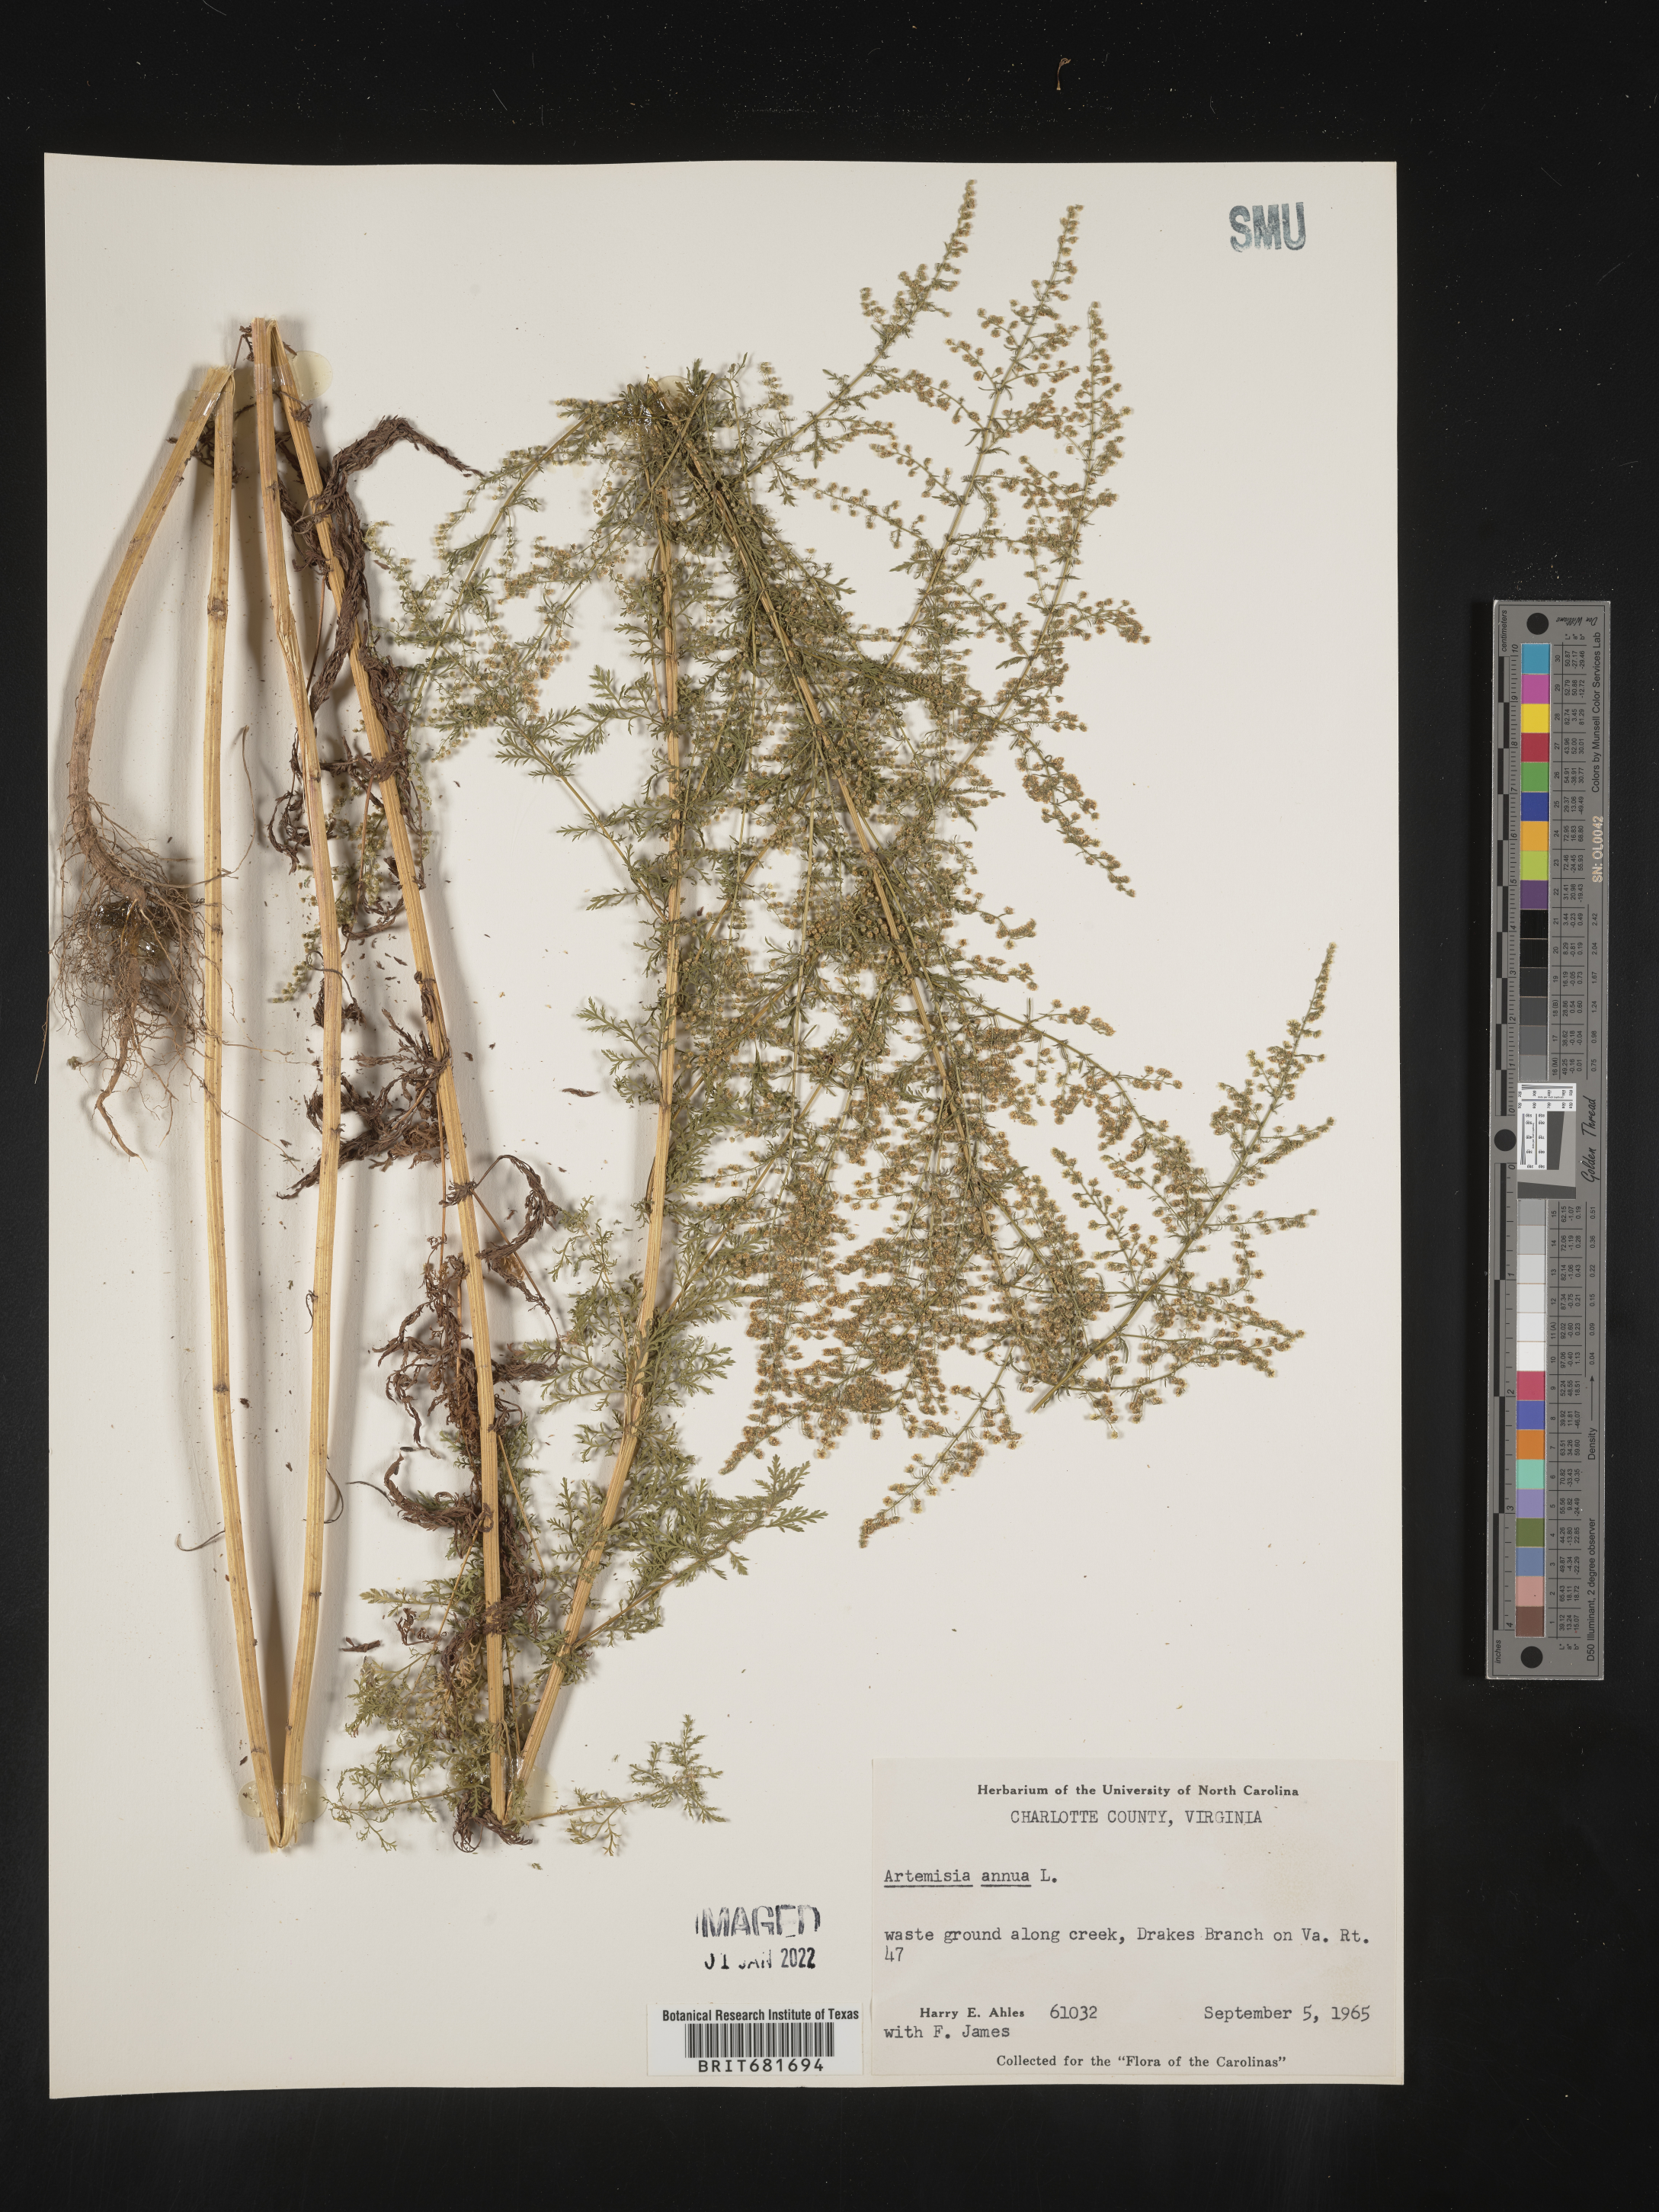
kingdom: Plantae
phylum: Tracheophyta
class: Magnoliopsida
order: Asterales
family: Asteraceae
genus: Artemisia
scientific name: Artemisia annua
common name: Sweet sagewort
